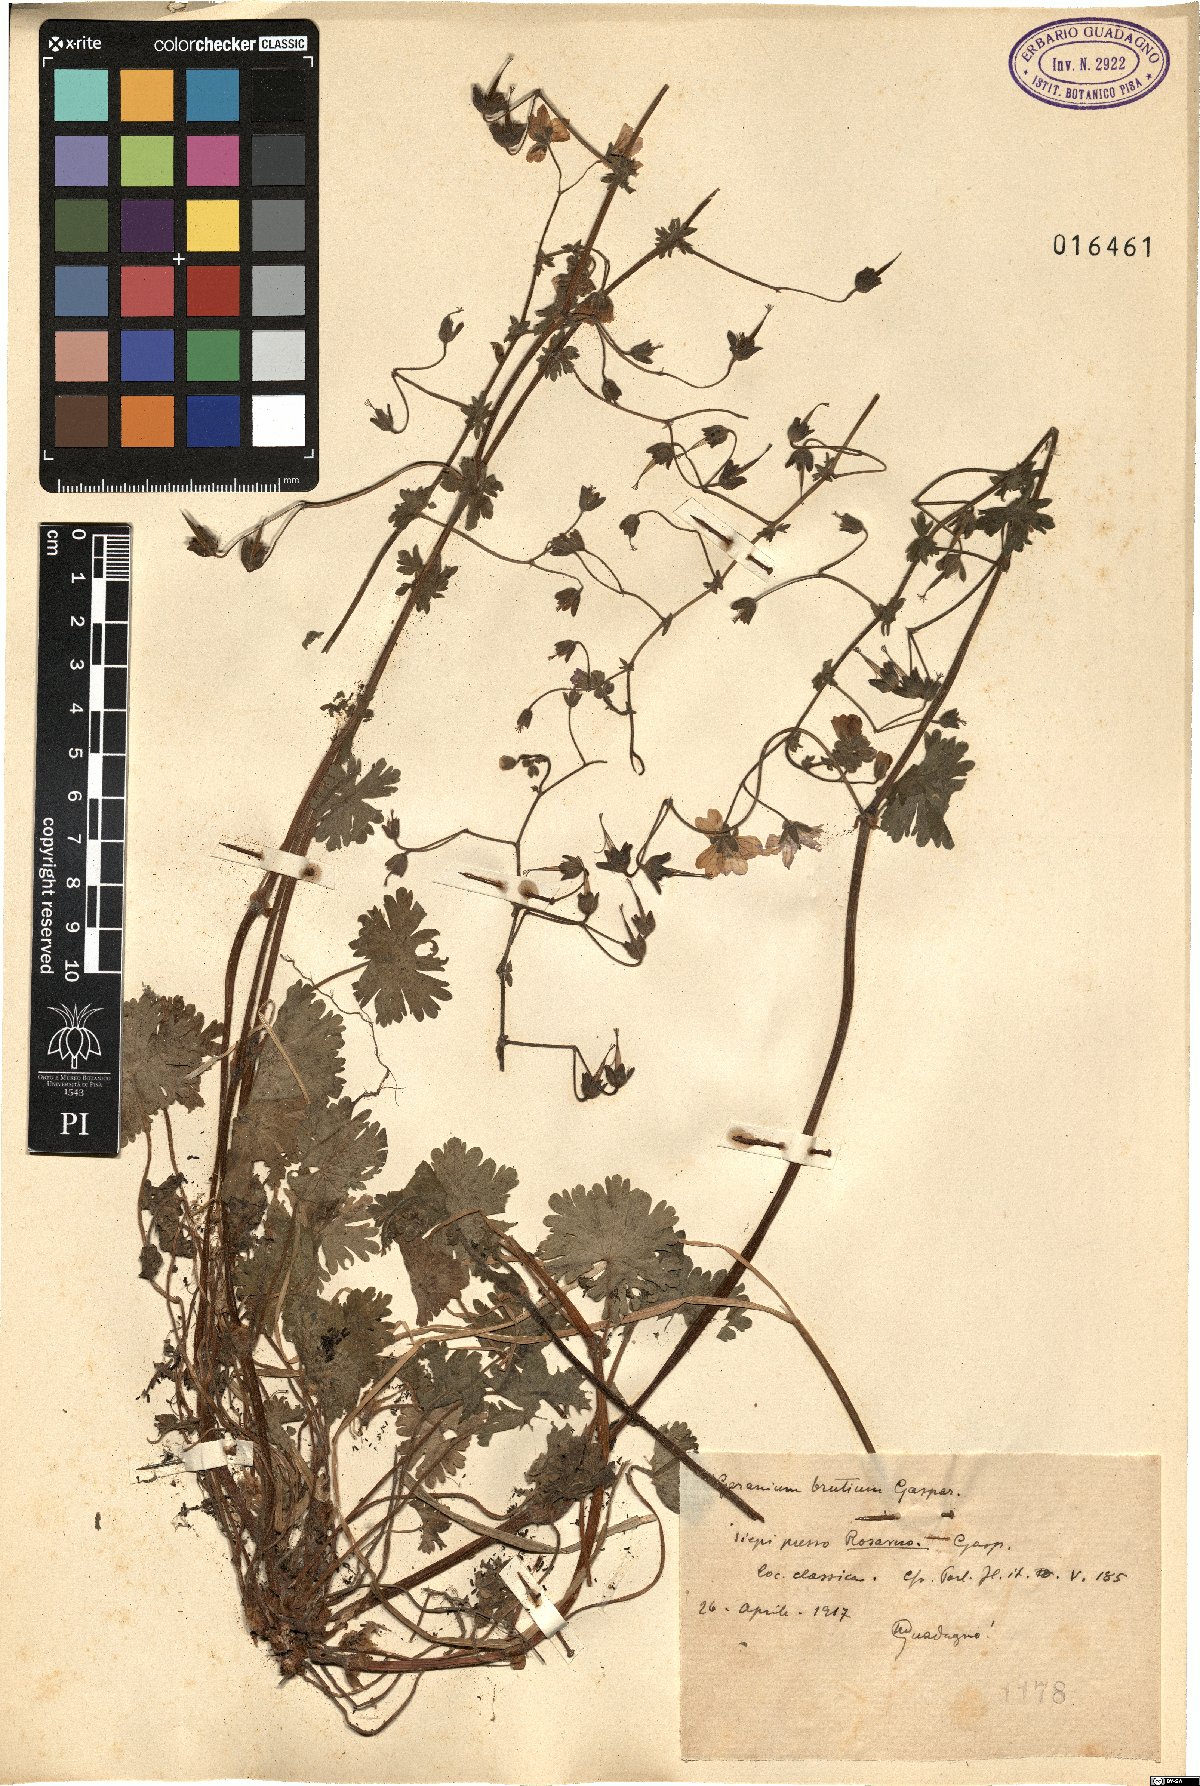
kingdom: Plantae
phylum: Tracheophyta
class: Magnoliopsida
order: Geraniales
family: Geraniaceae
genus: Geranium
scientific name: Geranium molle
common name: Dove's-foot crane's-bill
